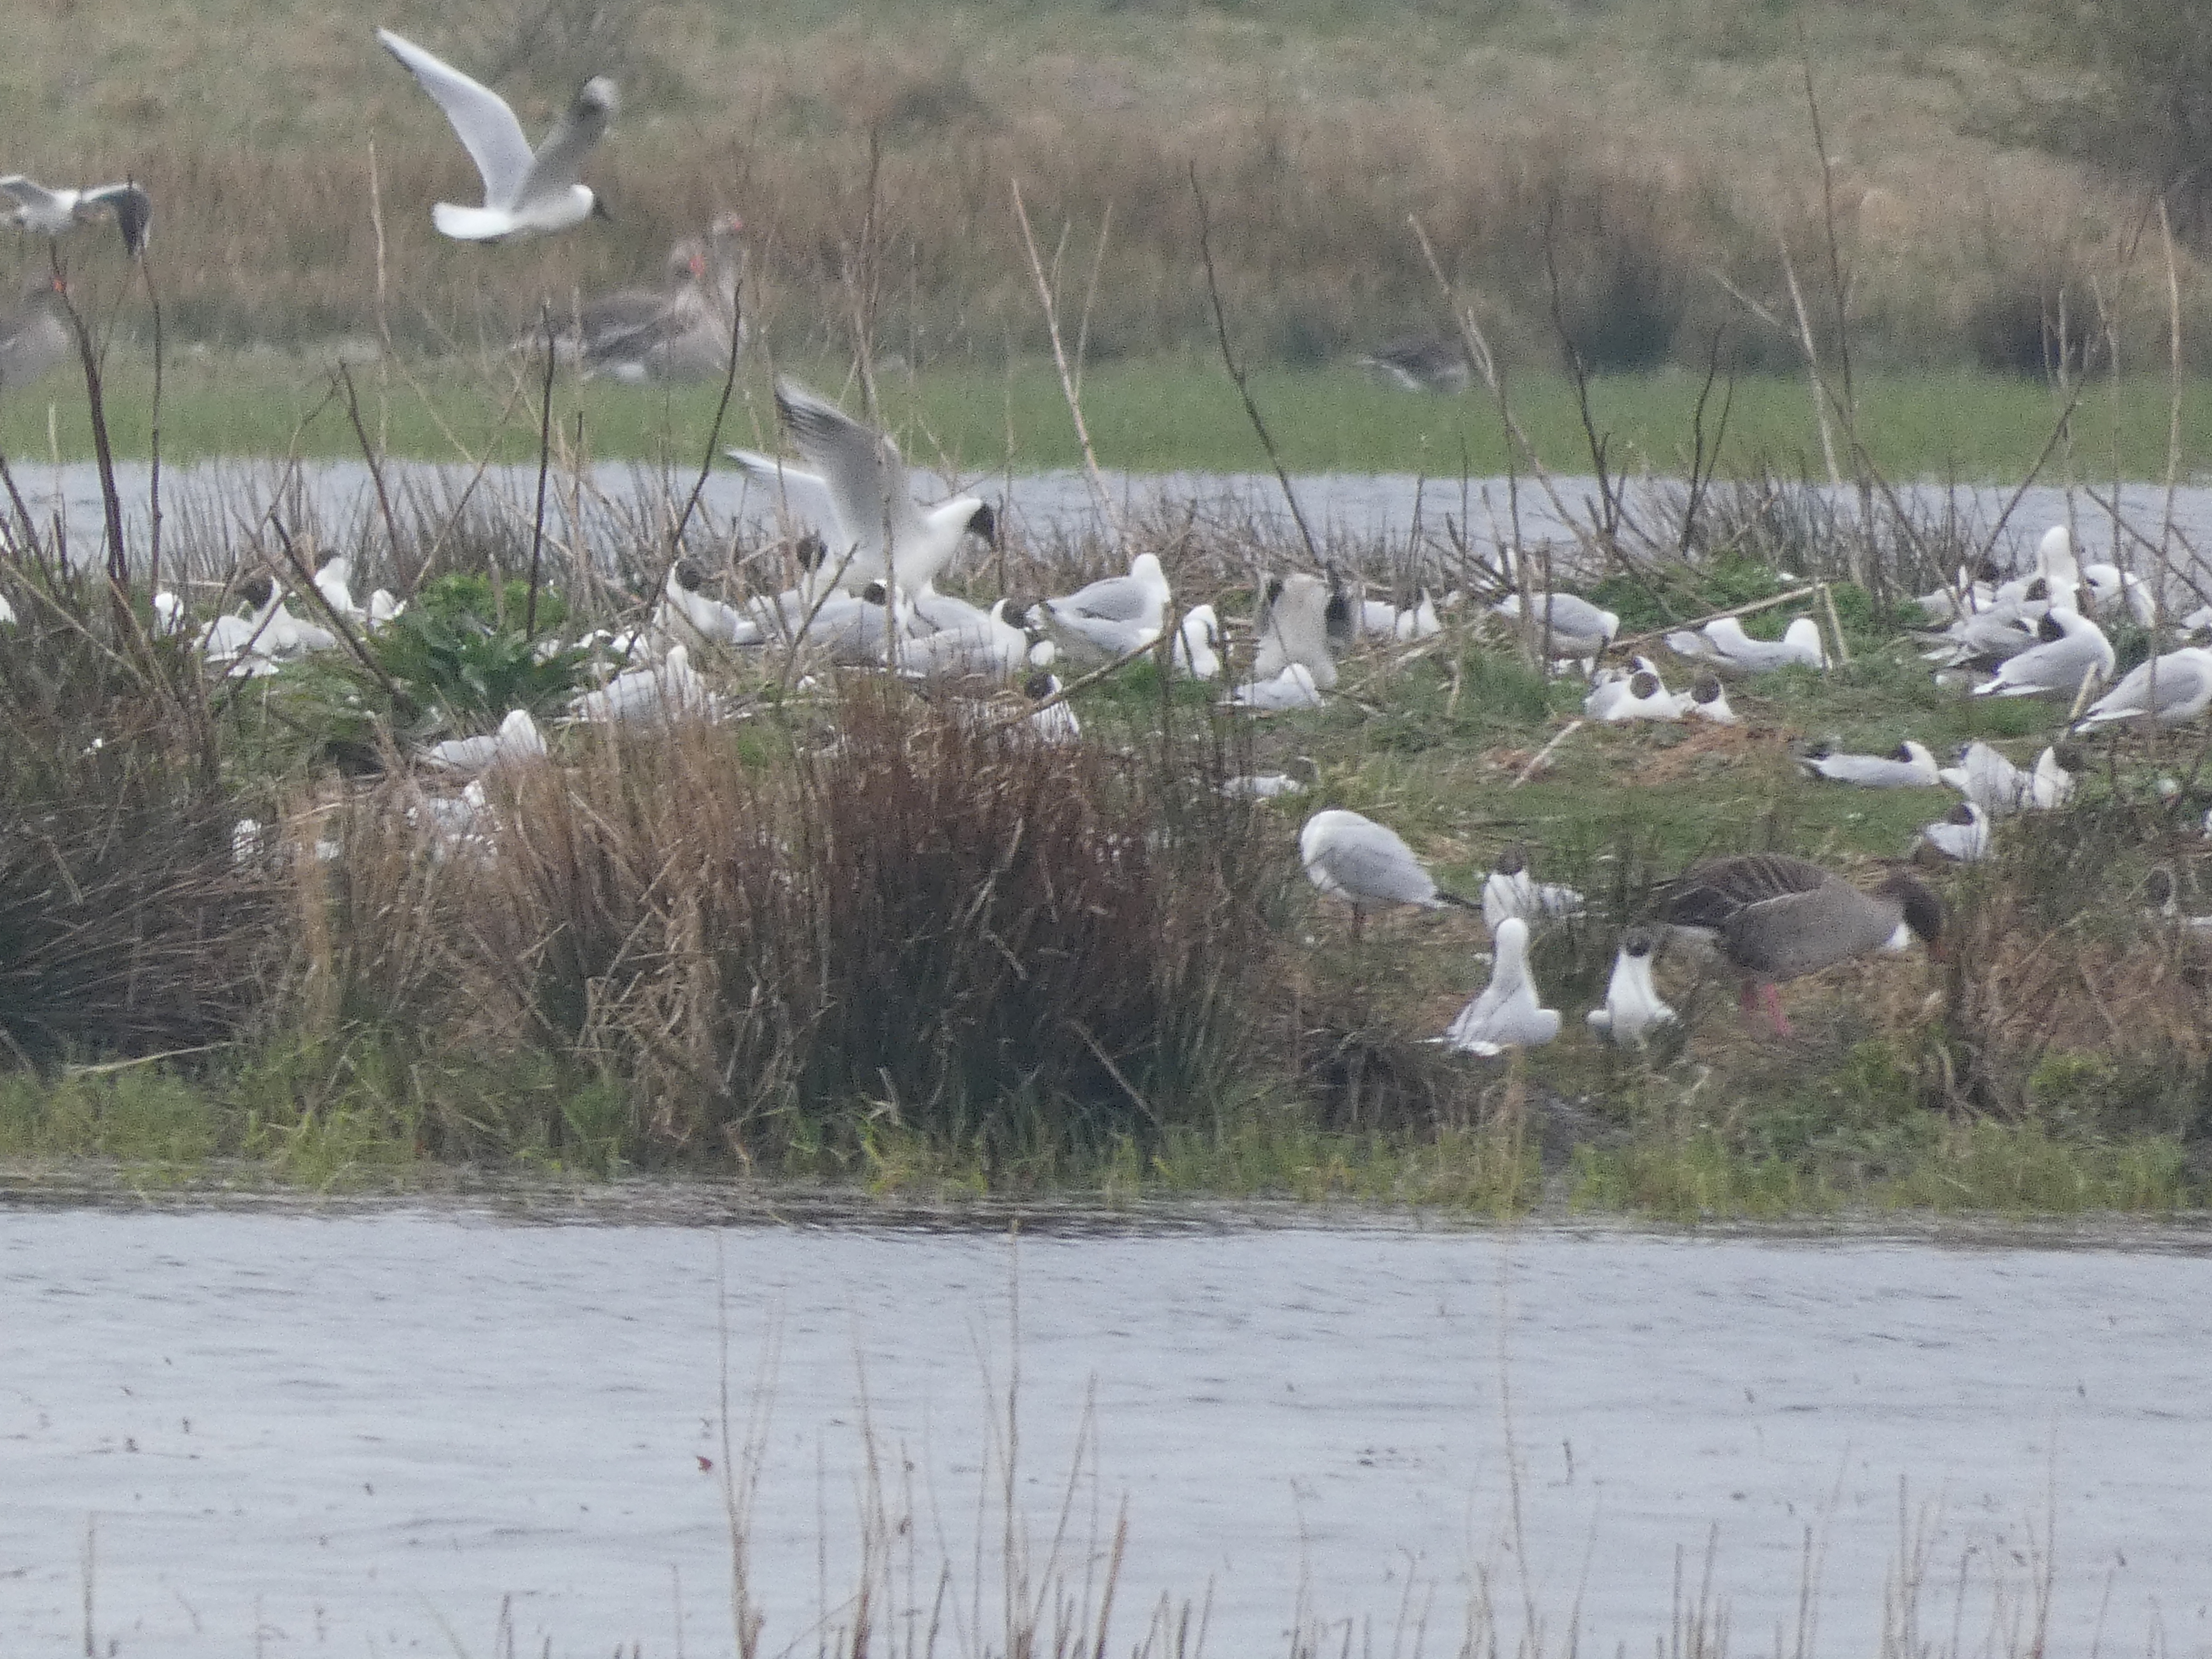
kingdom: Animalia
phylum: Chordata
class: Aves
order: Charadriiformes
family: Laridae
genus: Chroicocephalus
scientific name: Chroicocephalus ridibundus
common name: Hættemåge
